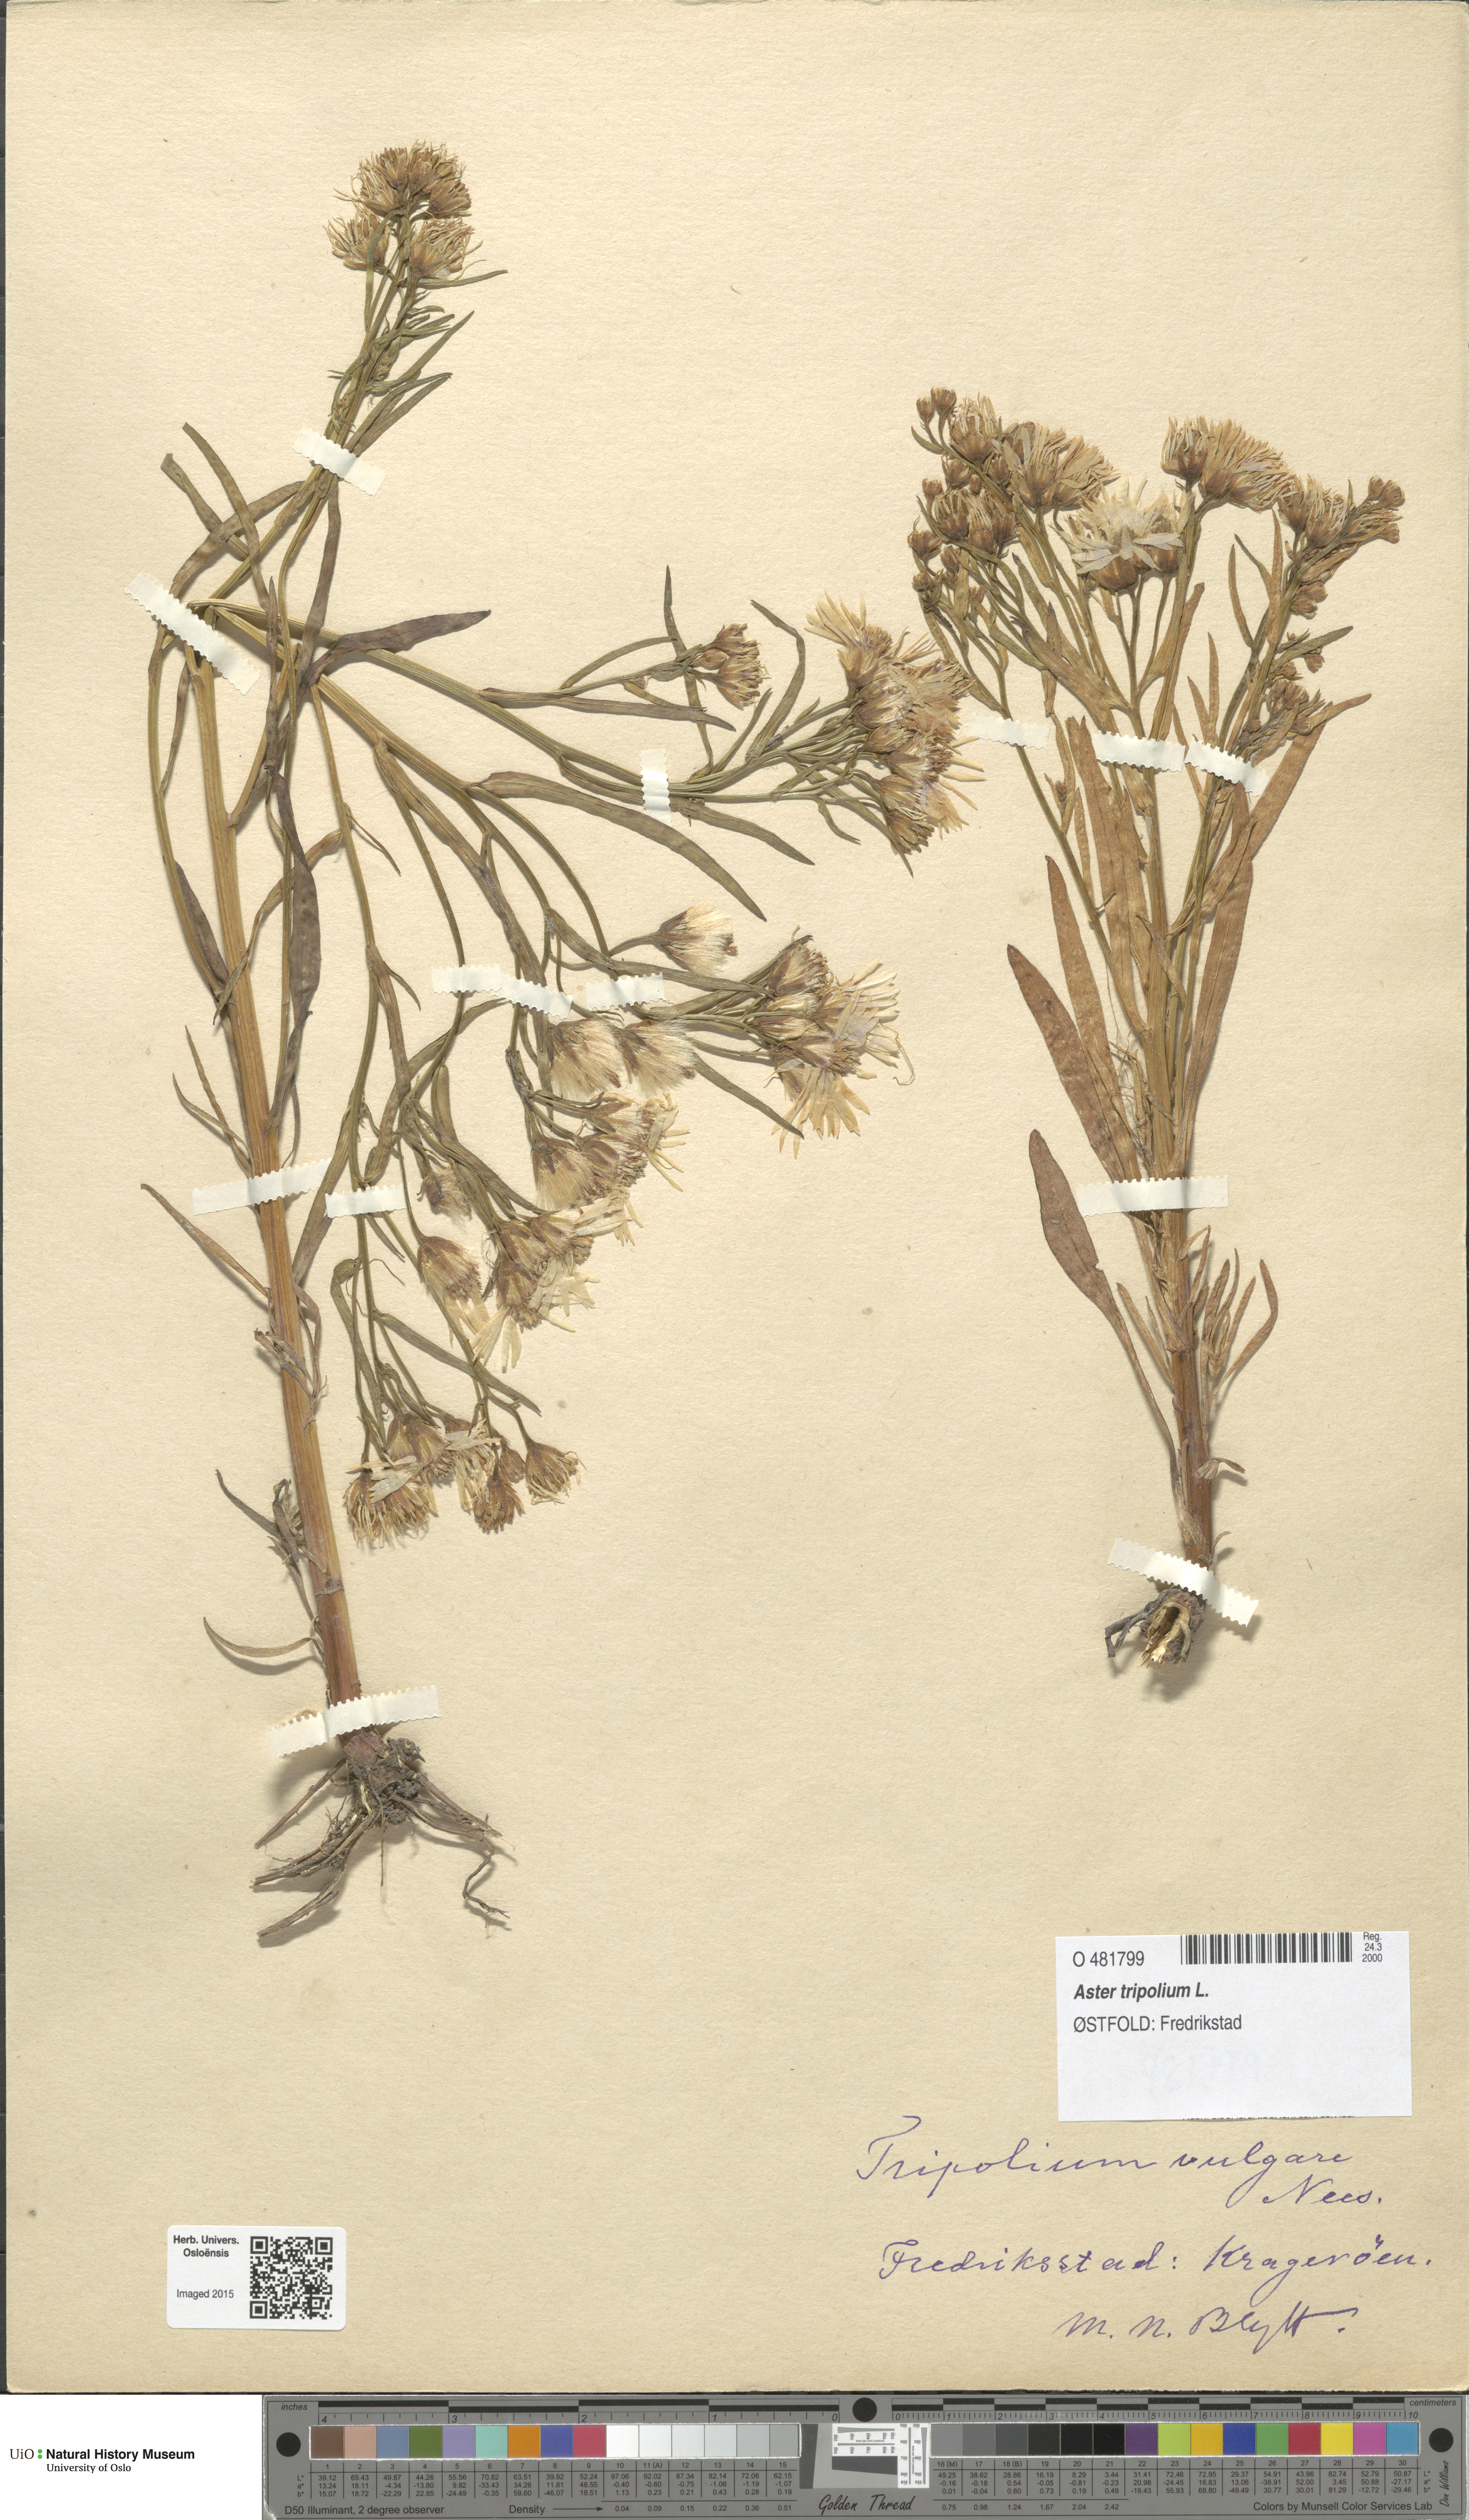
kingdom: Plantae
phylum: Tracheophyta
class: Magnoliopsida
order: Asterales
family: Asteraceae
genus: Tripolium
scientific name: Tripolium pannonicum
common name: Sea aster
